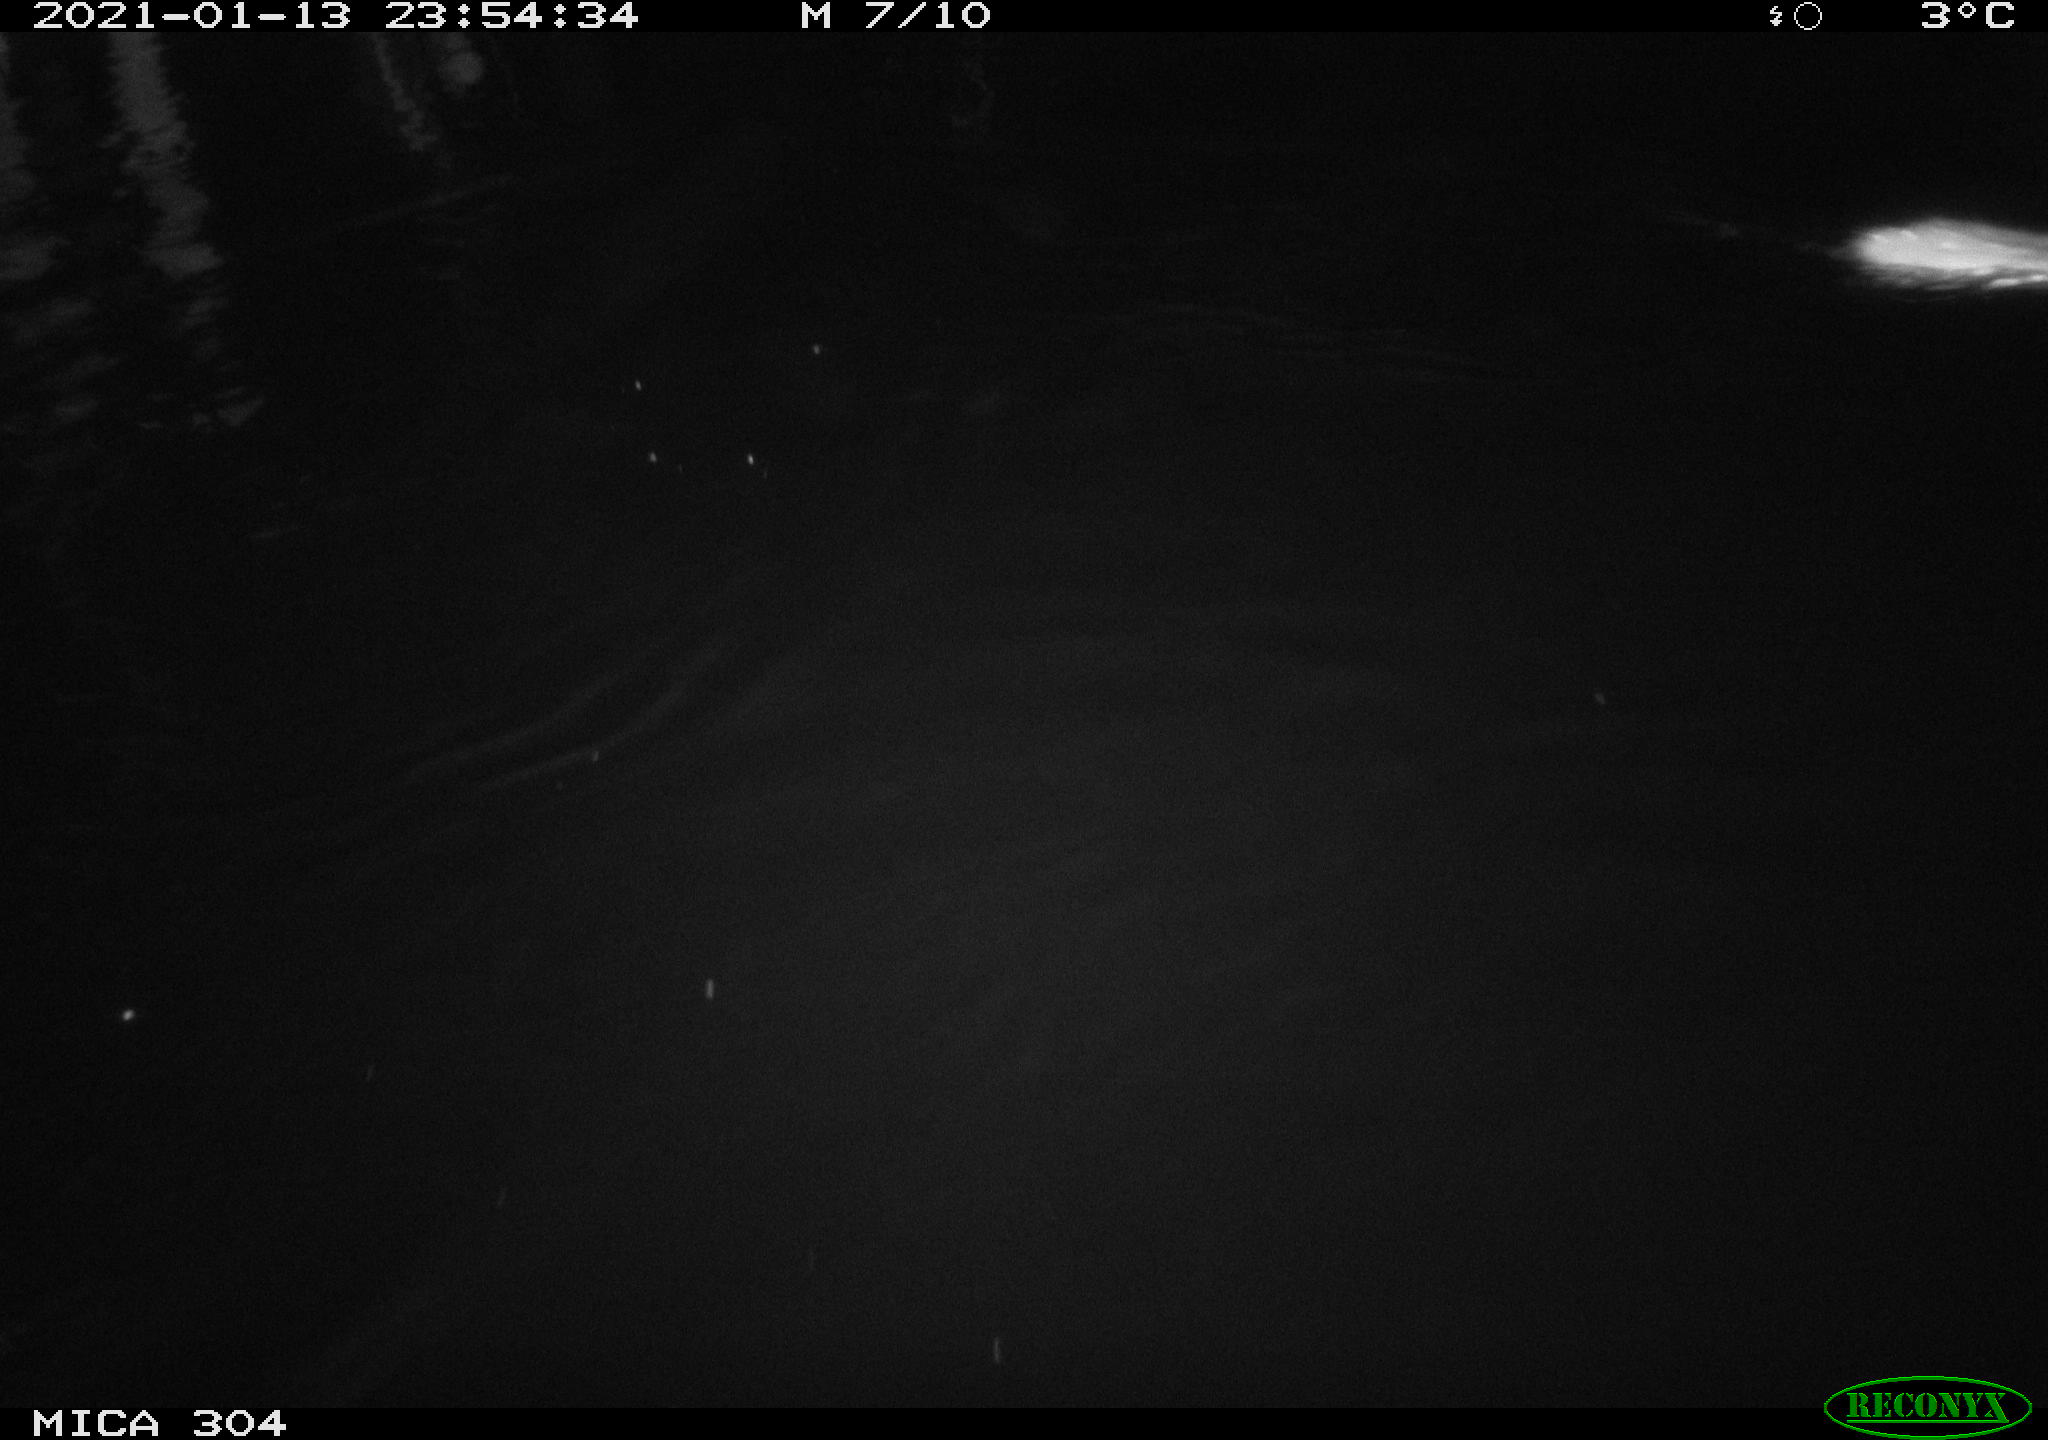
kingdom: Animalia
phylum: Chordata
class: Mammalia
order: Rodentia
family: Muridae
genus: Rattus
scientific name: Rattus norvegicus
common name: Brown rat
